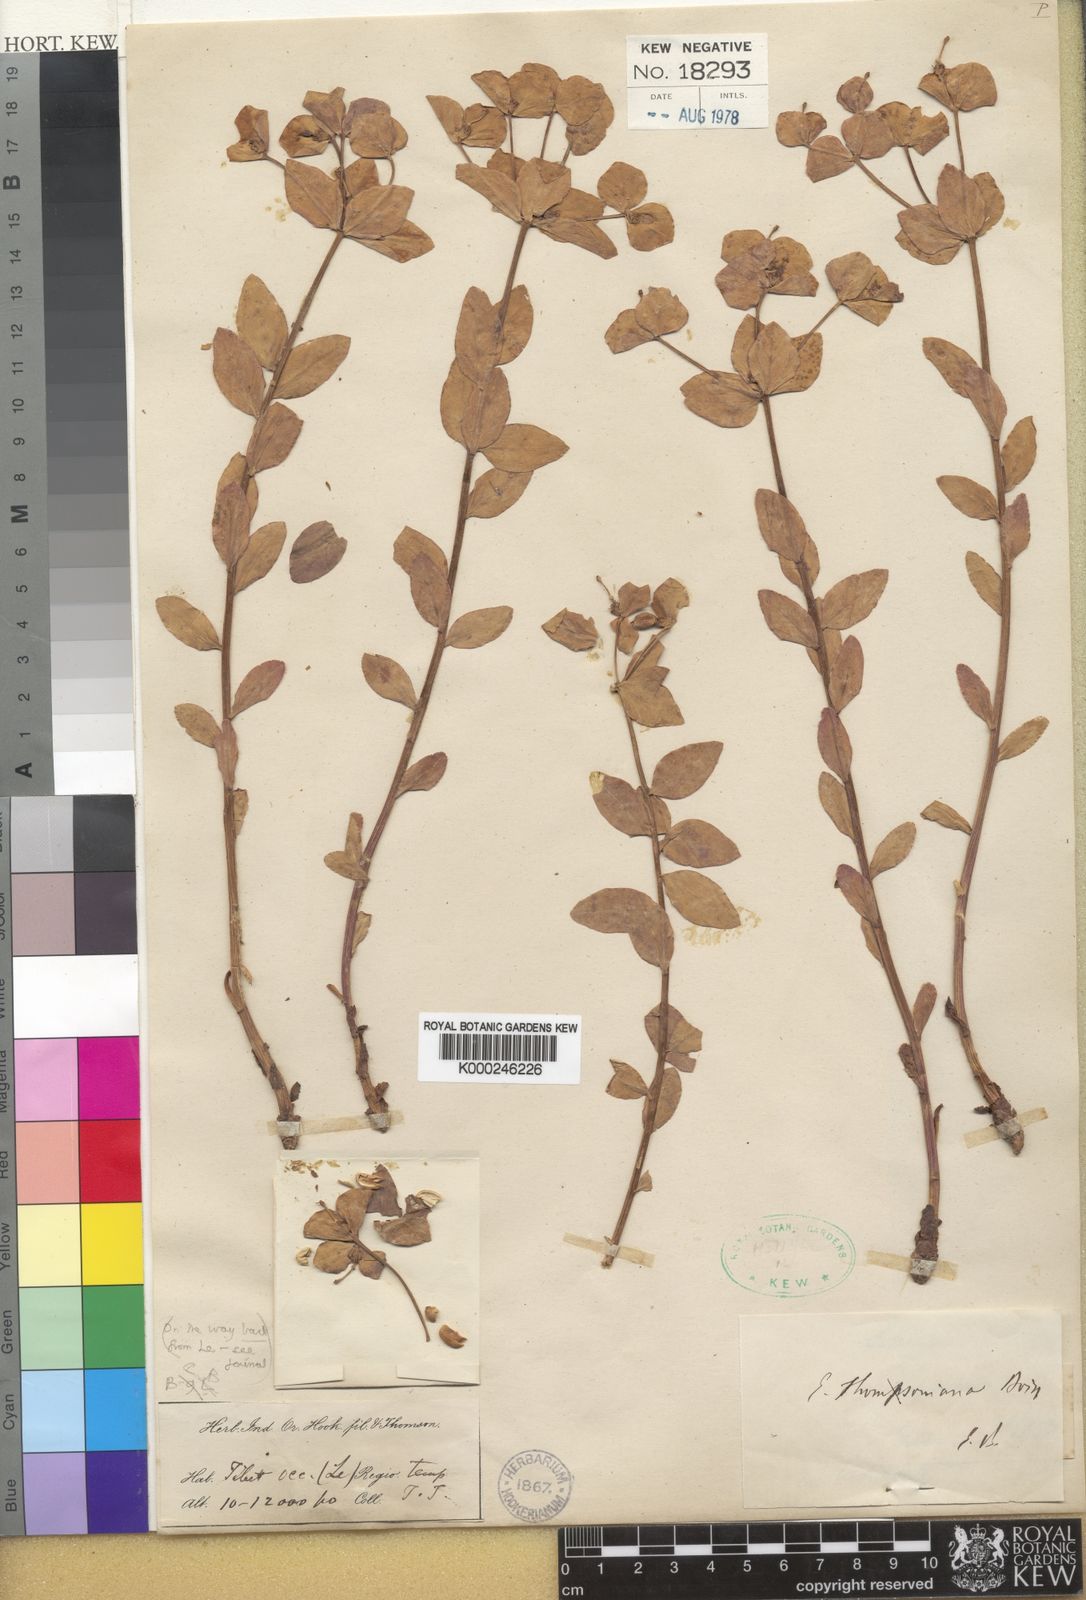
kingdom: Plantae
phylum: Tracheophyta
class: Magnoliopsida
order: Malpighiales
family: Euphorbiaceae
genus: Euphorbia
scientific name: Euphorbia thomsoniana
